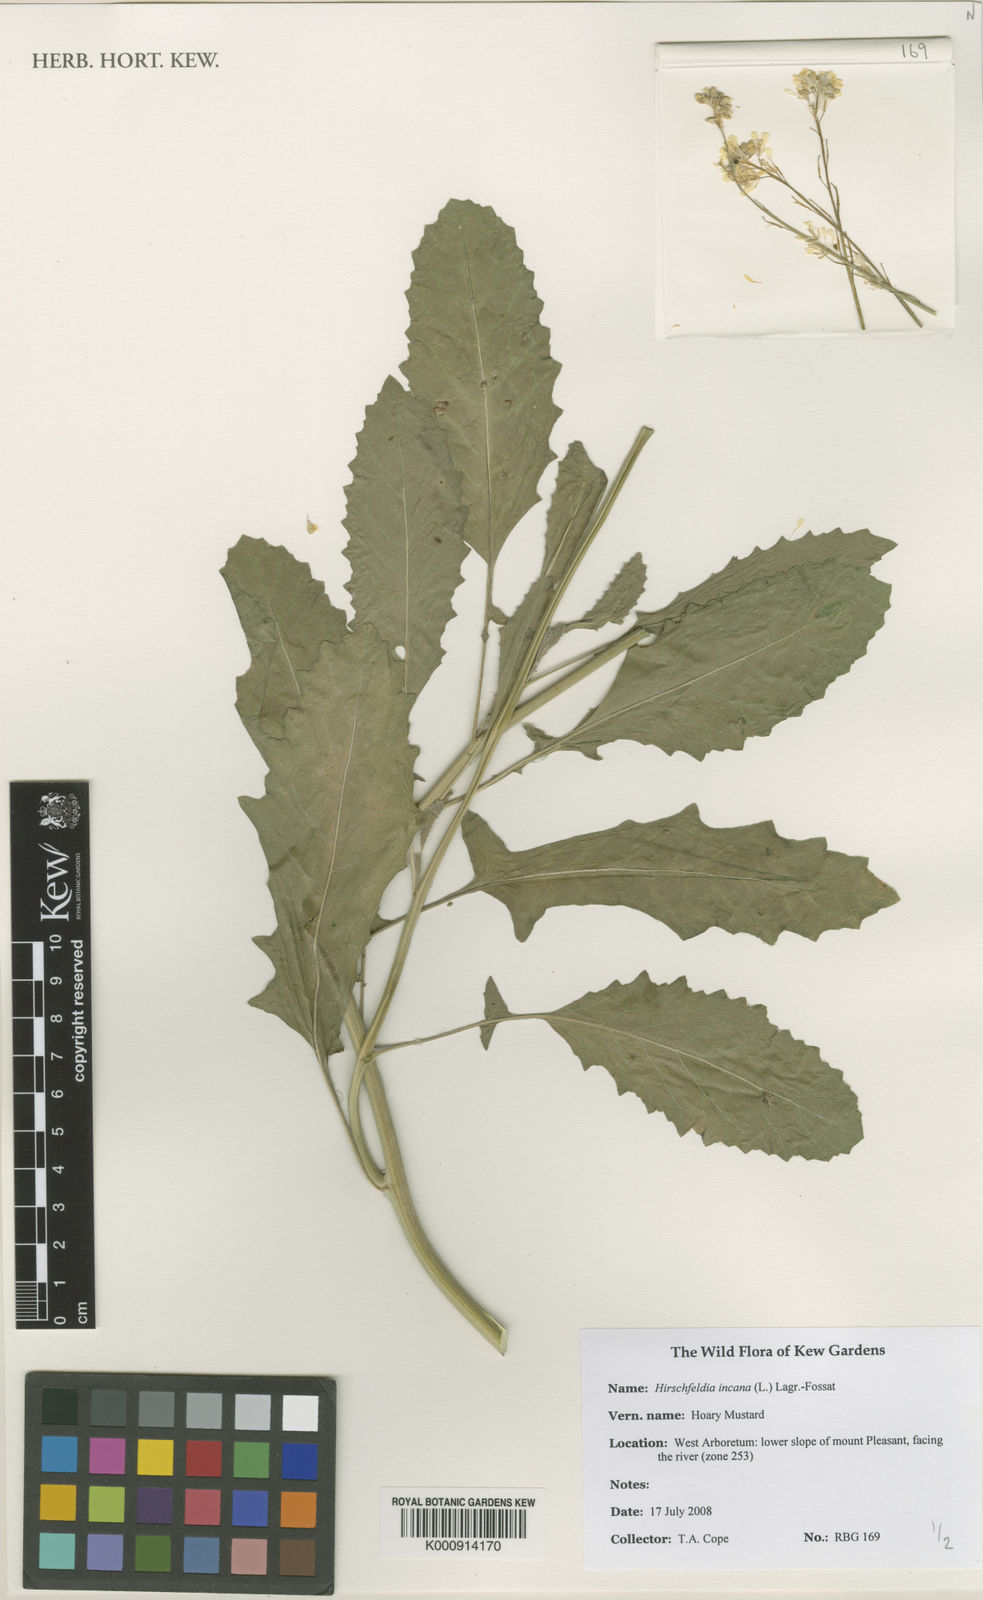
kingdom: Plantae
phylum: Tracheophyta
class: Magnoliopsida
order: Brassicales
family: Brassicaceae
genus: Hirschfeldia
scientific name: Hirschfeldia incana
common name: Hoary mustard
